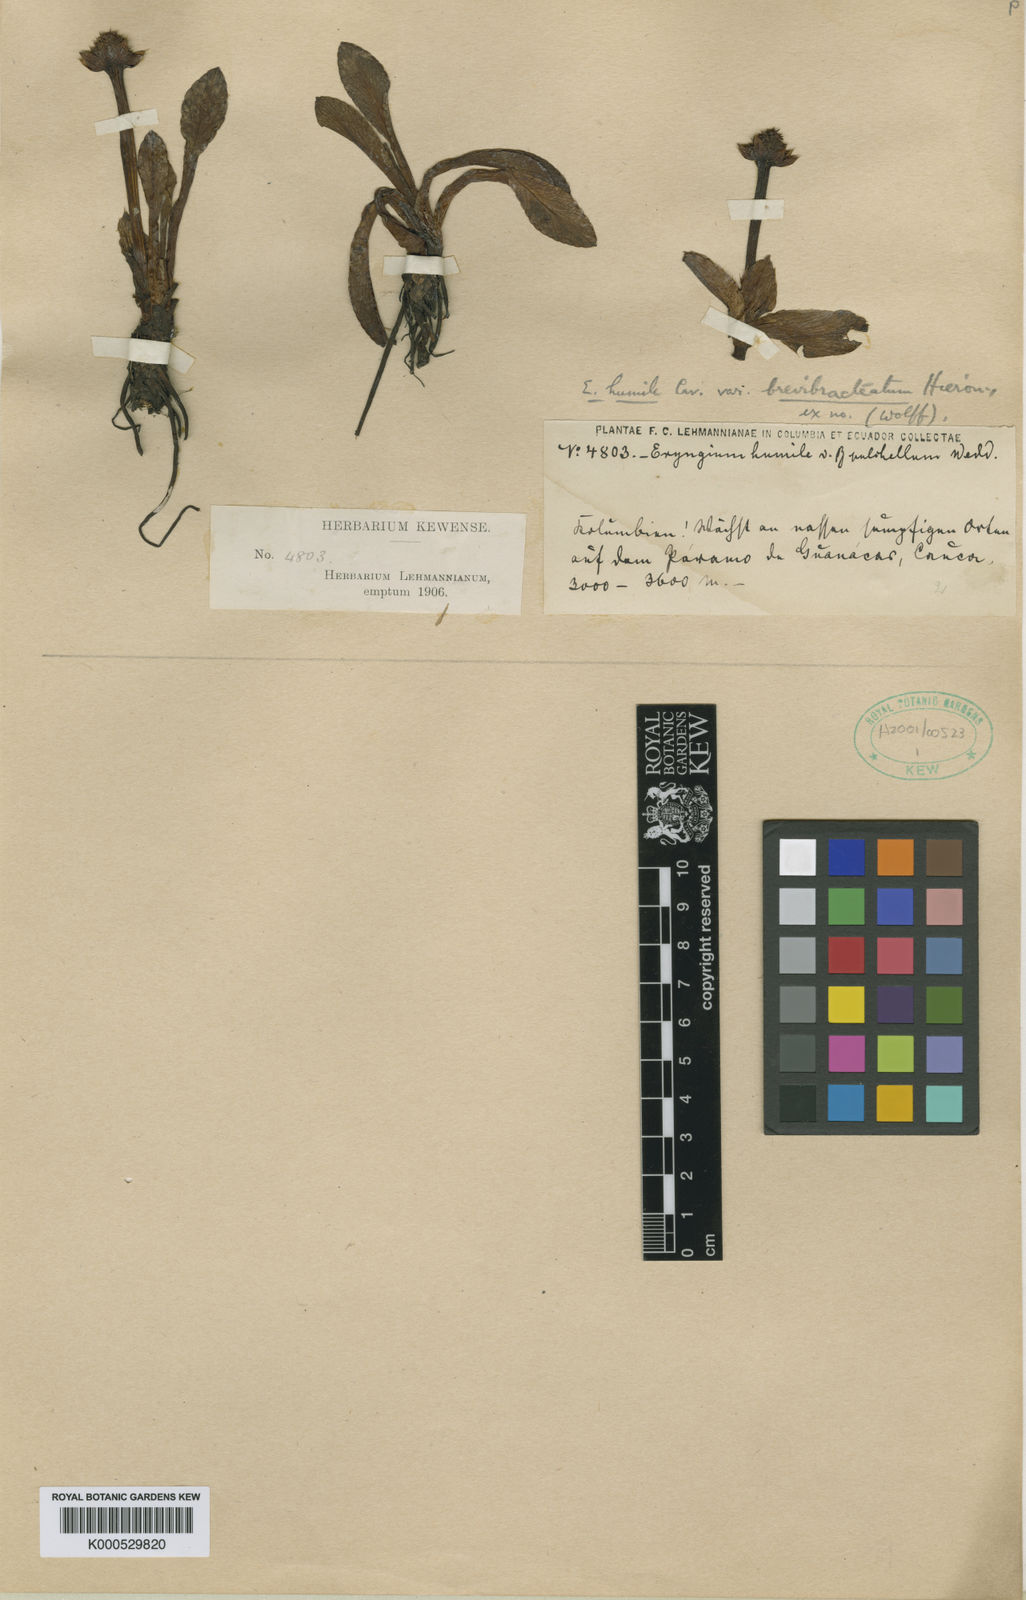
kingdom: Plantae
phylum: Tracheophyta
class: Magnoliopsida
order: Apiales
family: Apiaceae
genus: Eryngium
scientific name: Eryngium humile
